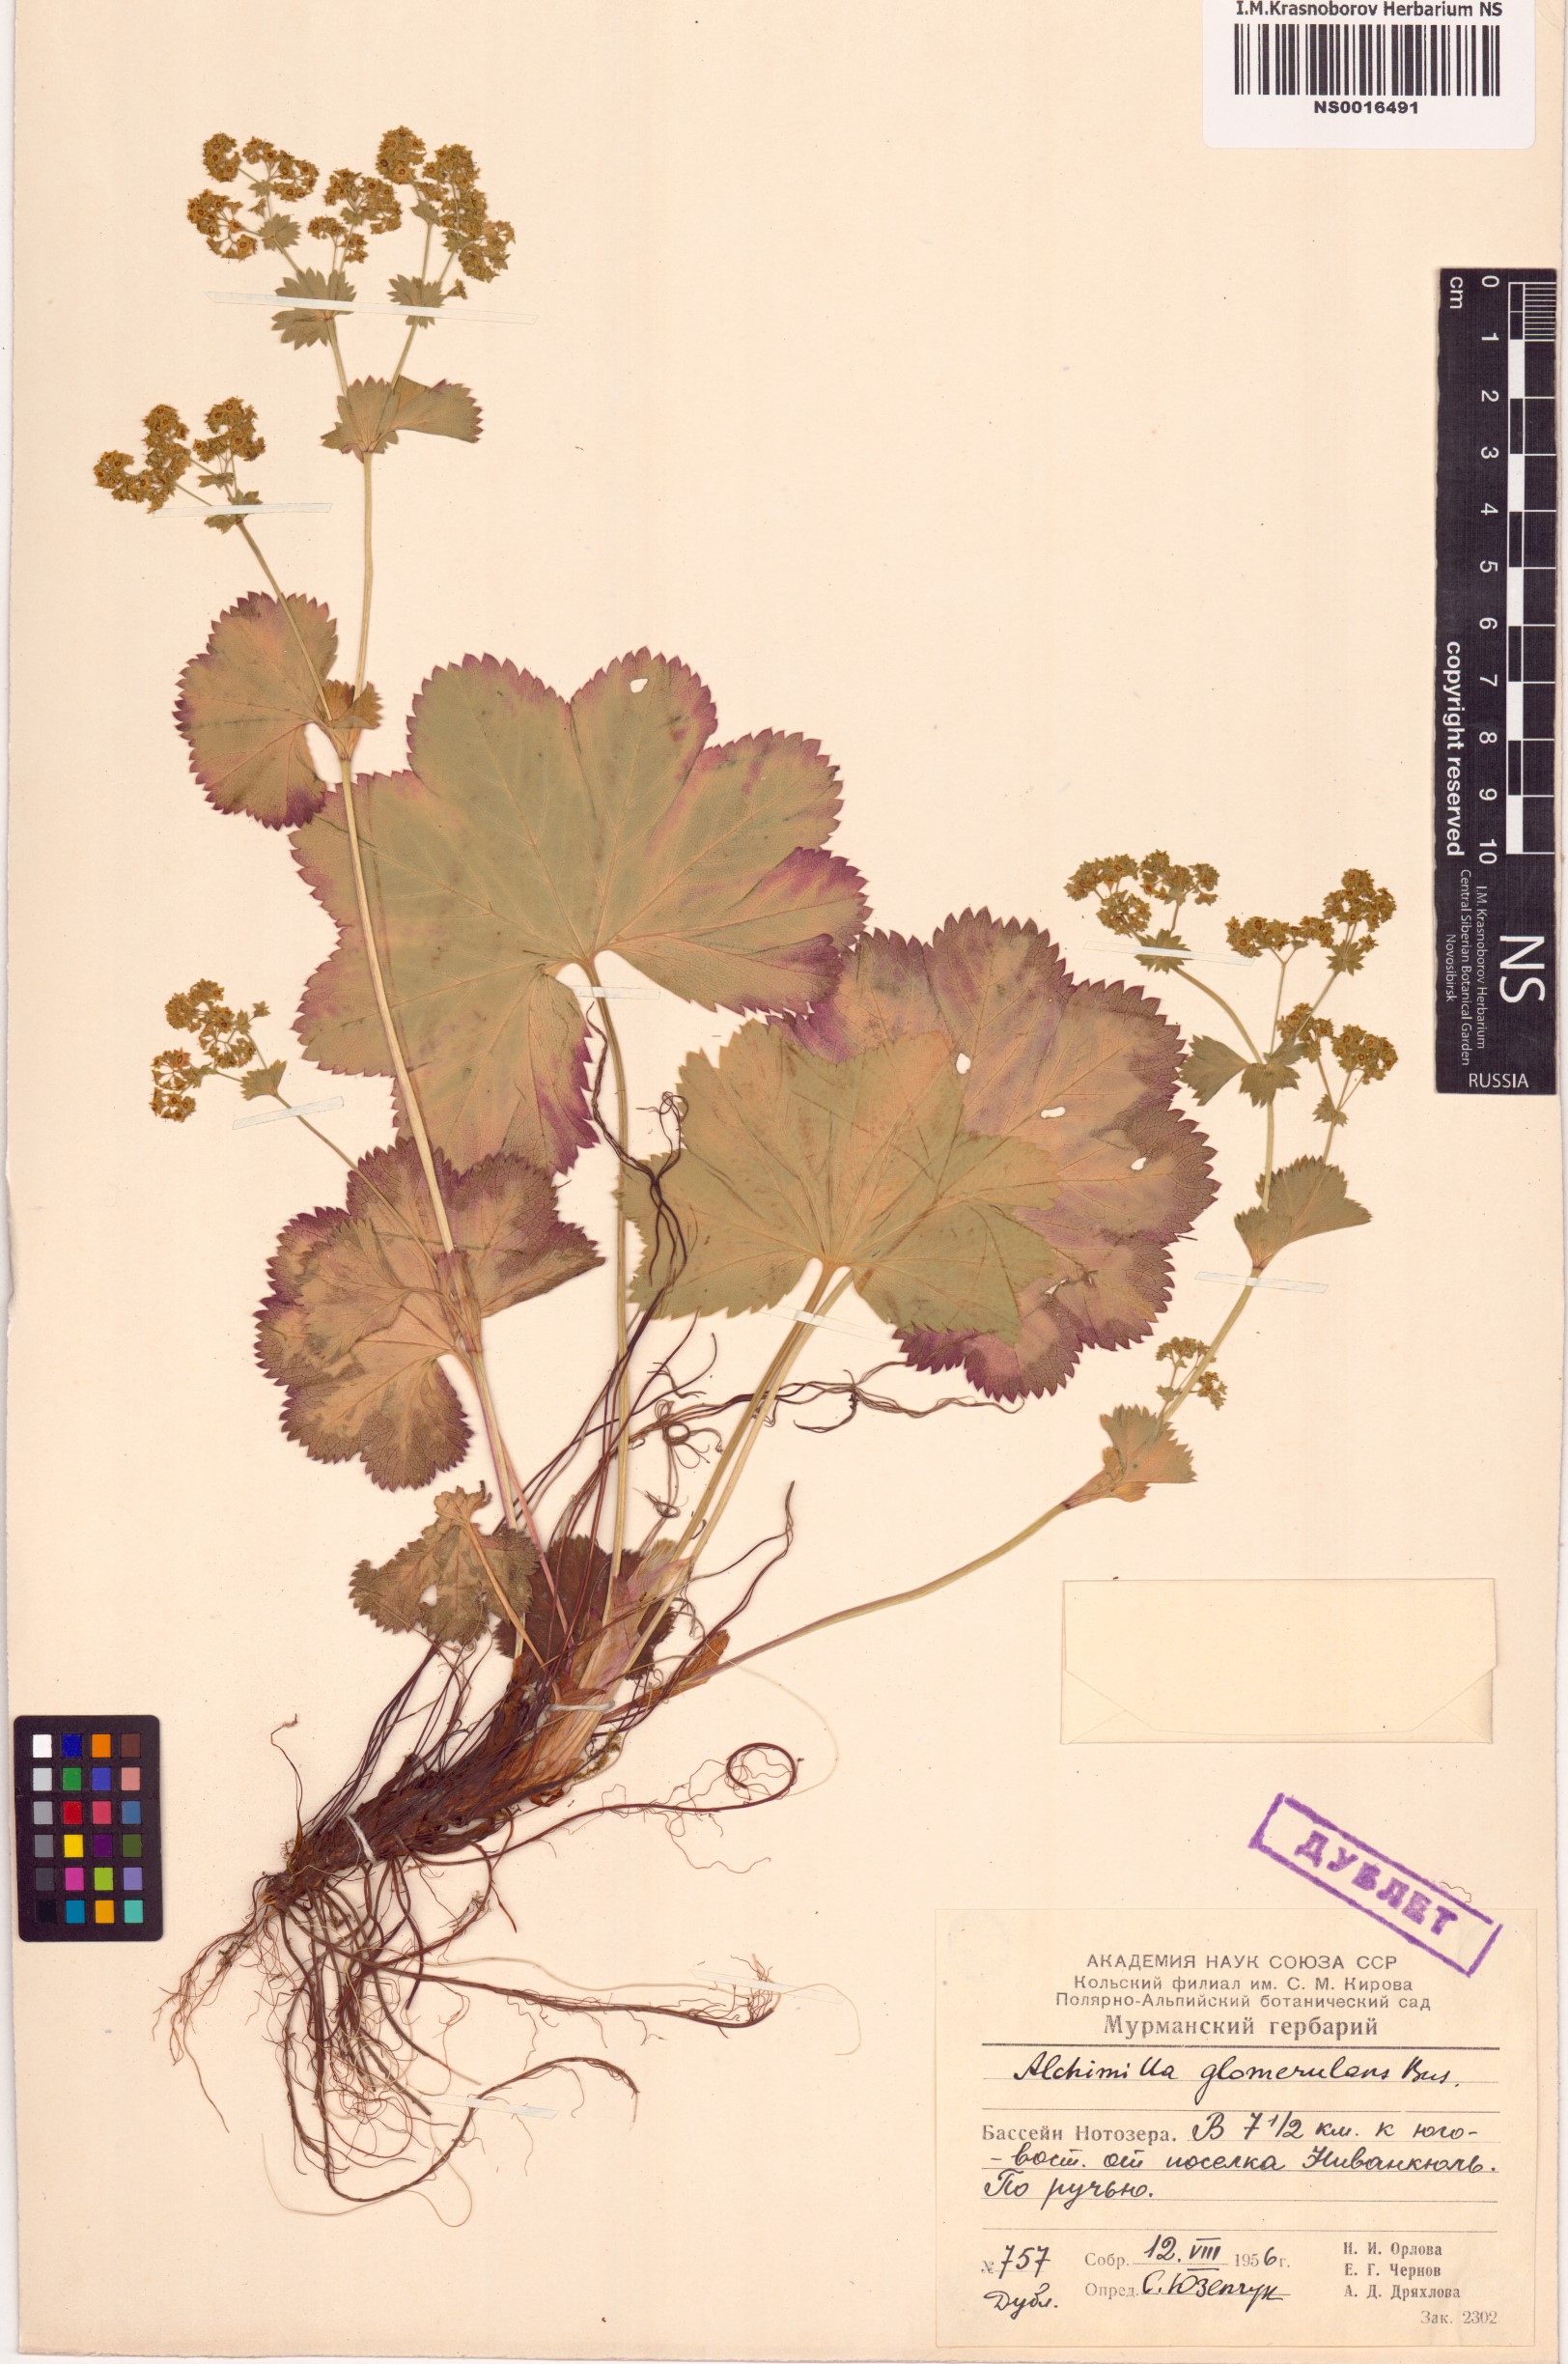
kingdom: Plantae
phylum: Tracheophyta
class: Magnoliopsida
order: Rosales
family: Rosaceae
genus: Alchemilla
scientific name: Alchemilla glomerulans
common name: Clustered lady's mantle
